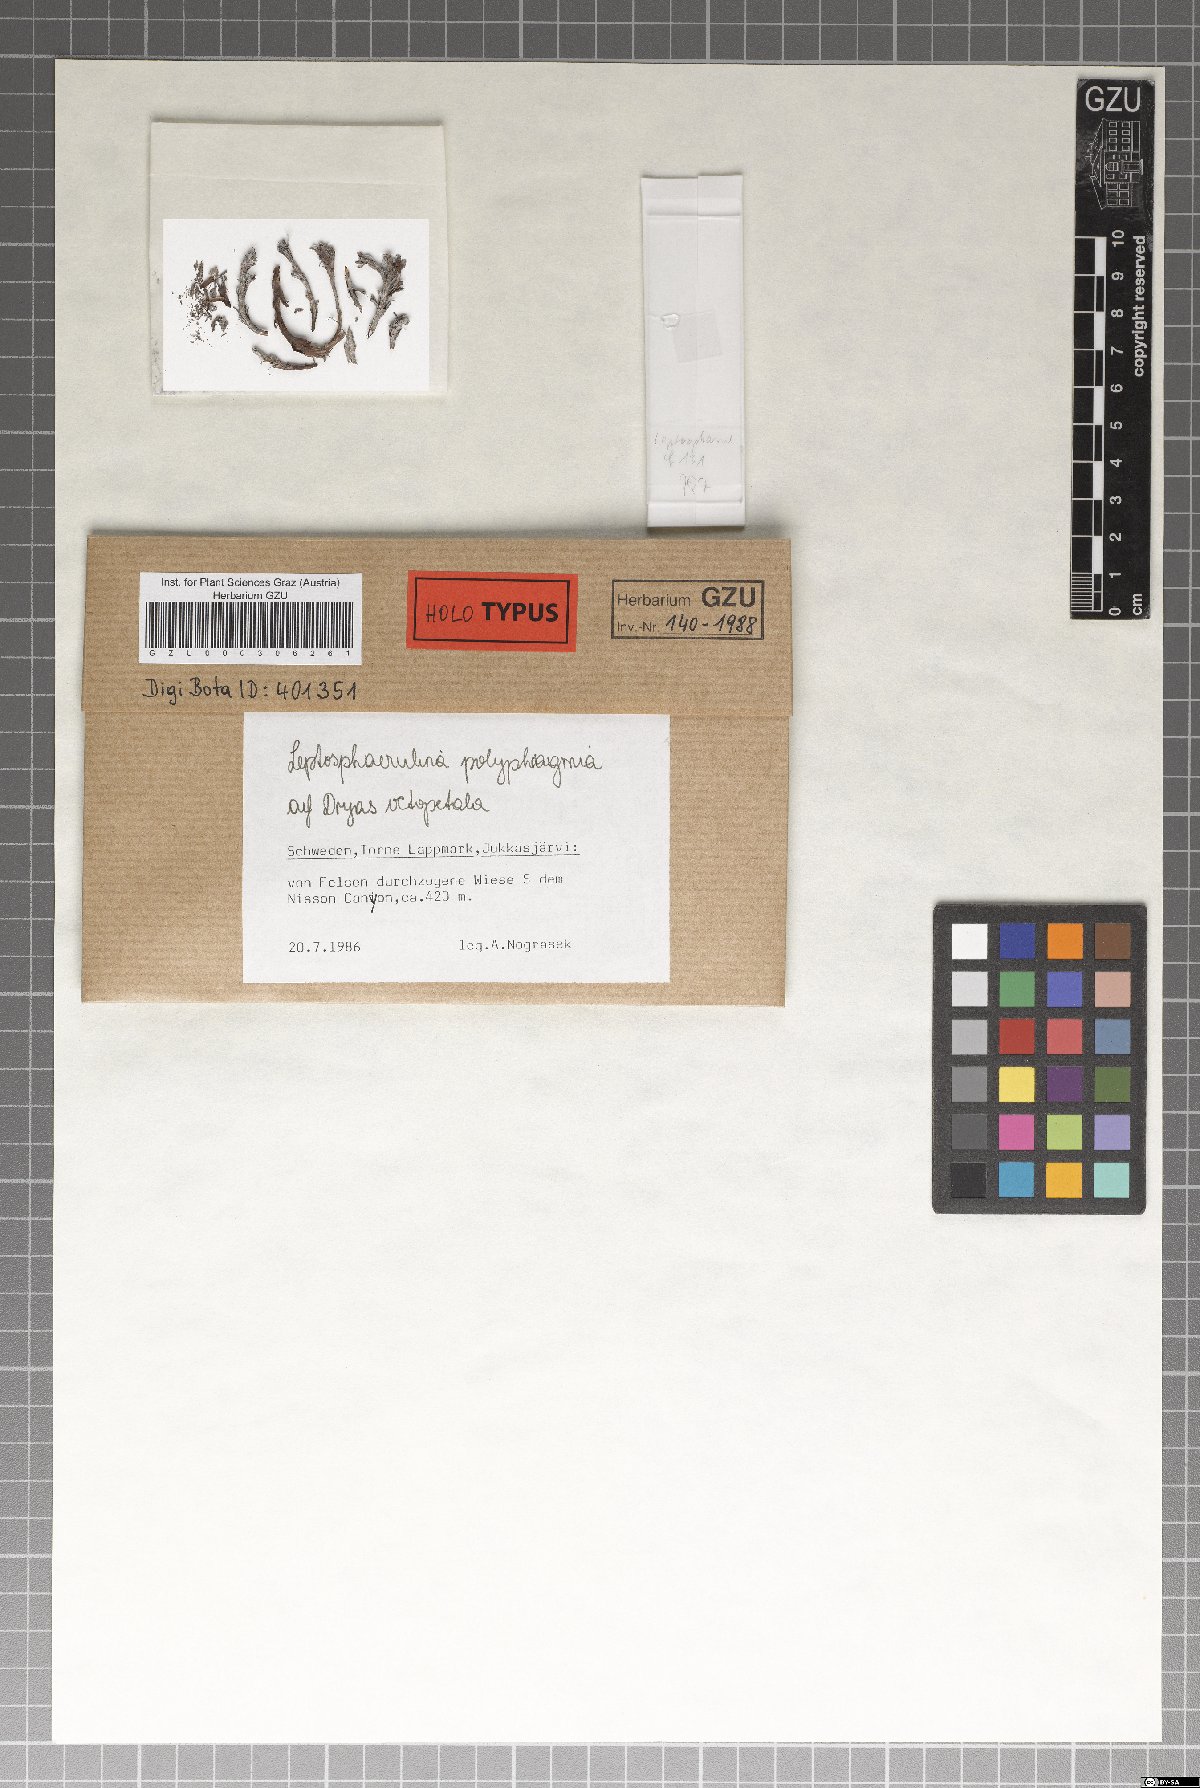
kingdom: Fungi
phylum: Ascomycota
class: Dothideomycetes
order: Pleosporales
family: Didymellaceae
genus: Leptosphaerulina
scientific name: Leptosphaerulina polyphragmia
